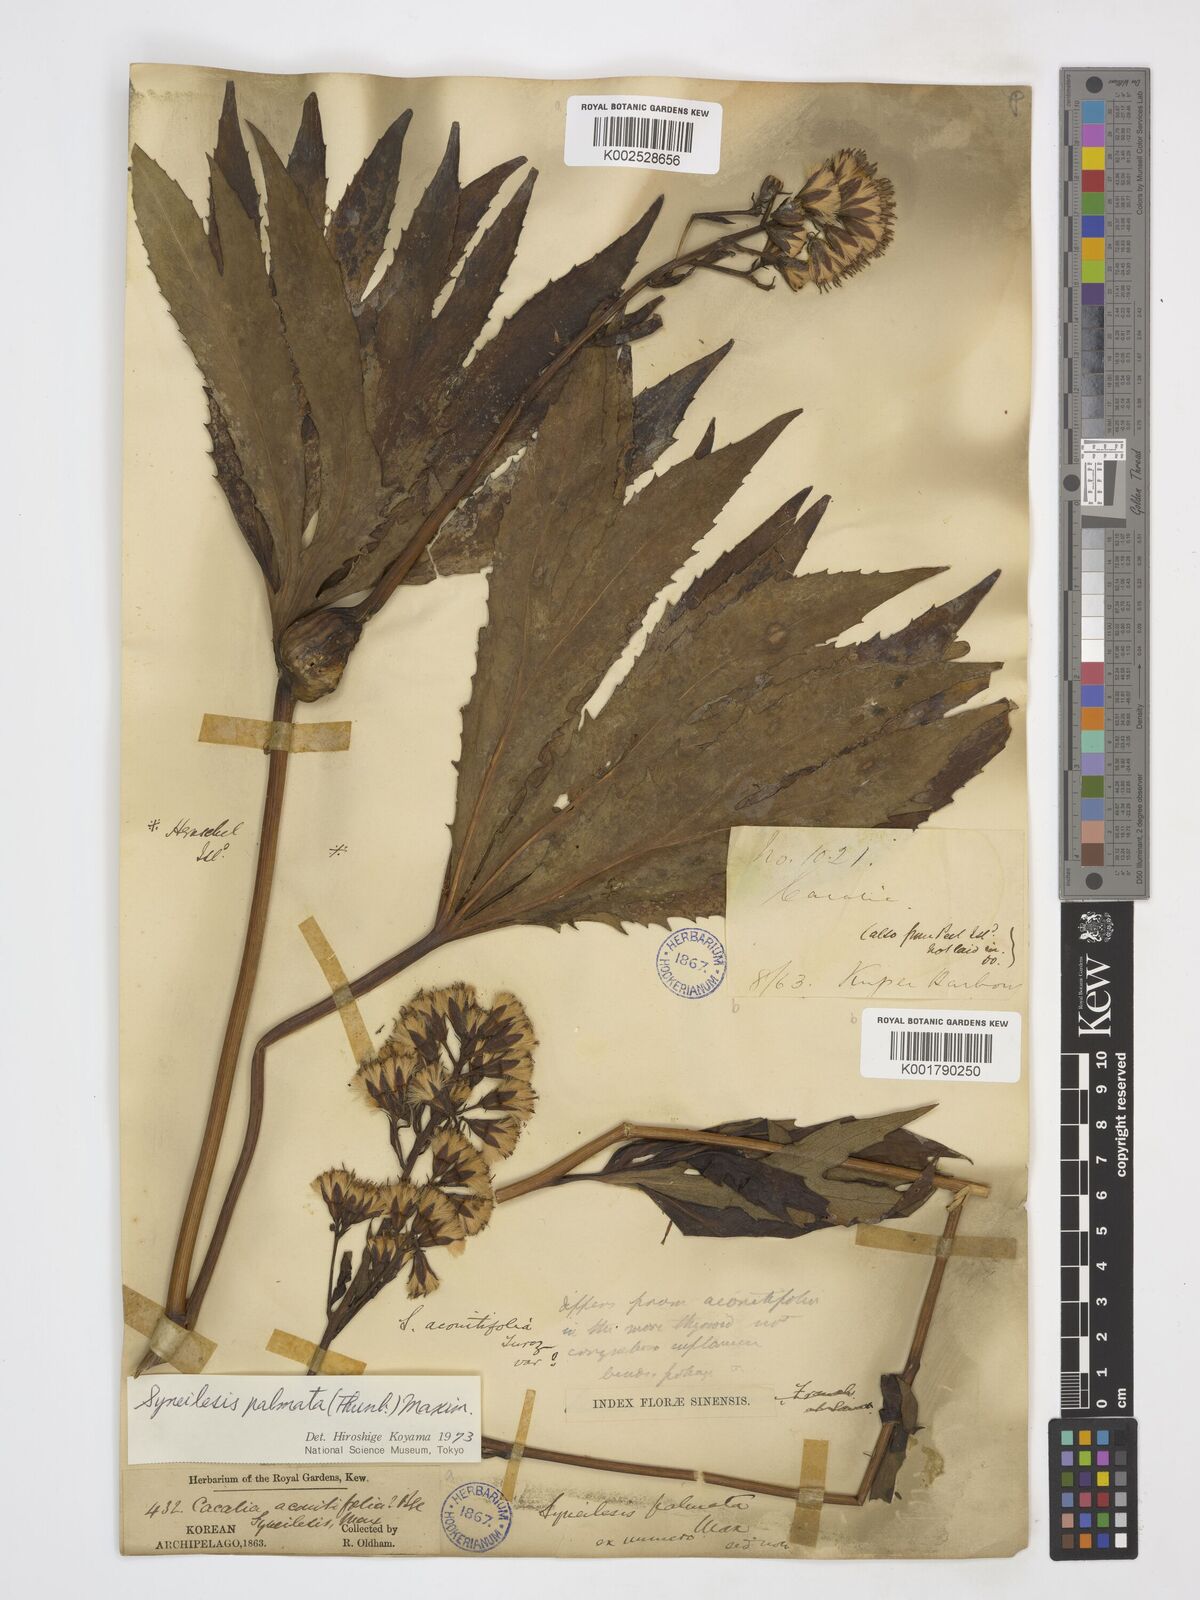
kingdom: Plantae
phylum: Tracheophyta
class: Magnoliopsida
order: Asterales
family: Asteraceae
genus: Syneilesis
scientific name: Syneilesis palmata
